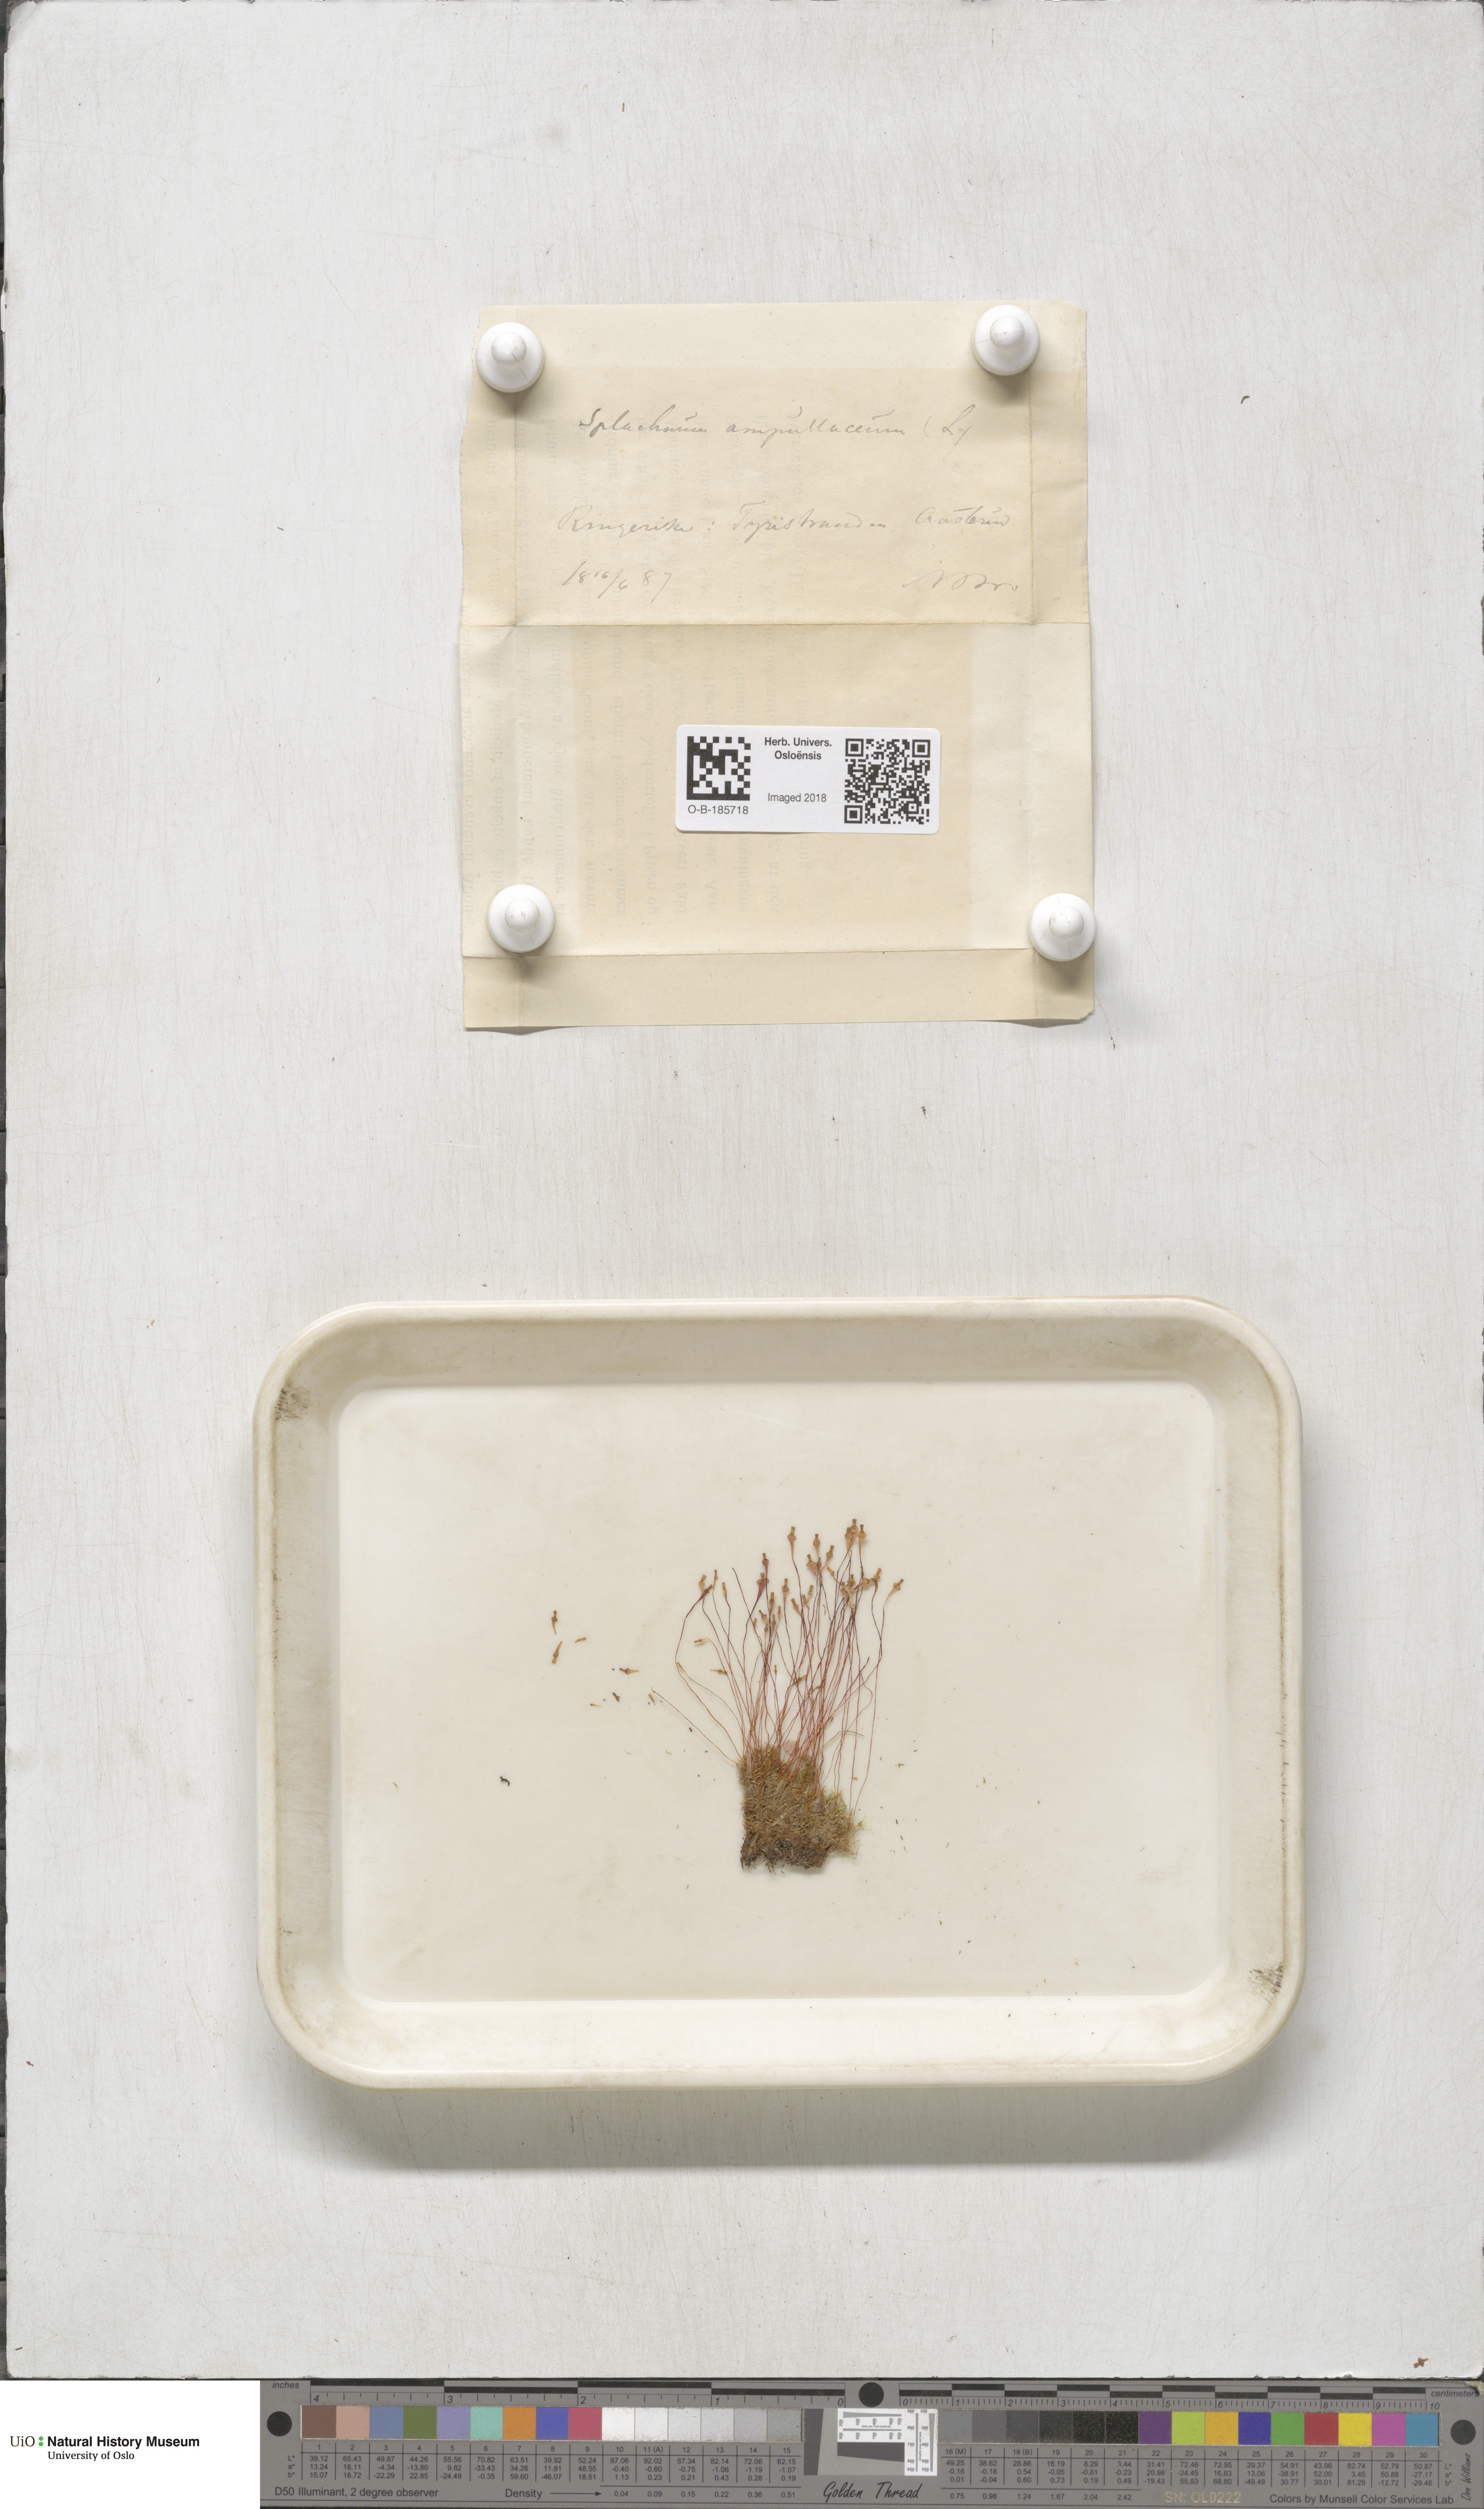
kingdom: Plantae
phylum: Bryophyta
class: Bryopsida
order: Splachnales
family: Splachnaceae
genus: Splachnum
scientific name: Splachnum ampullaceum
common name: Cruet dung moss
